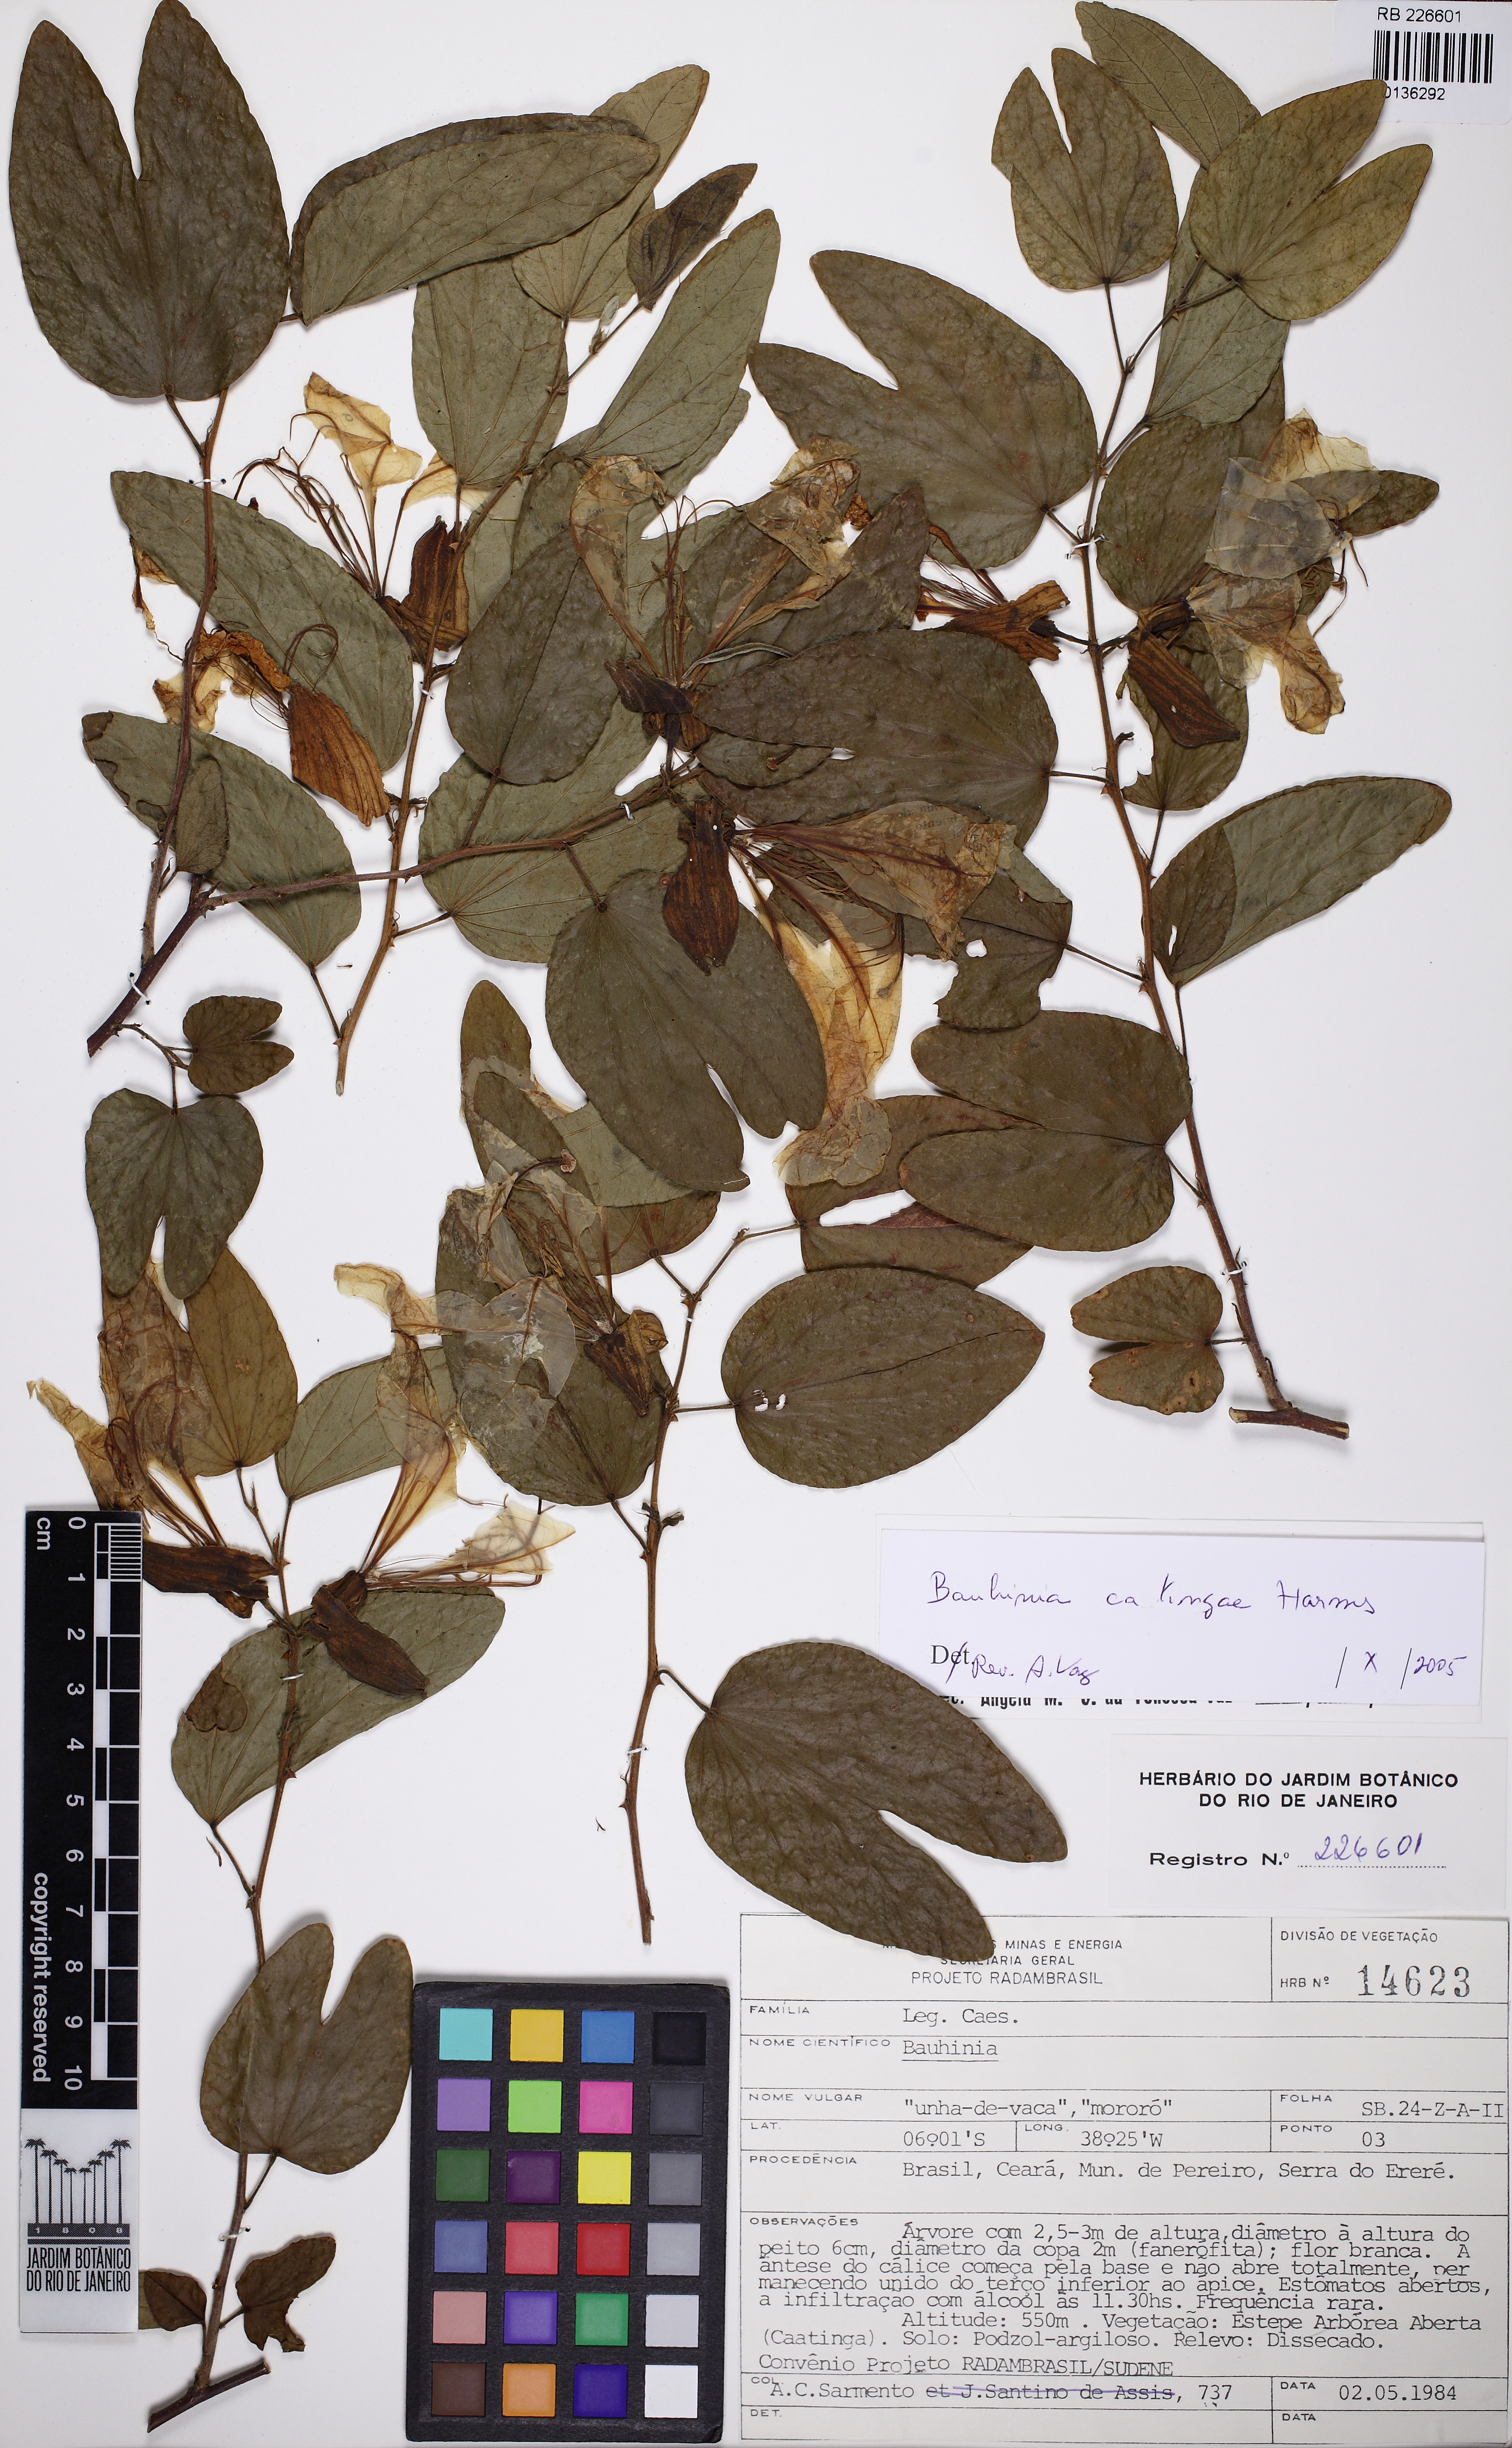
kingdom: Plantae
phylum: Tracheophyta
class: Magnoliopsida
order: Fabales
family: Fabaceae
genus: Bauhinia
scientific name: Bauhinia catingae
